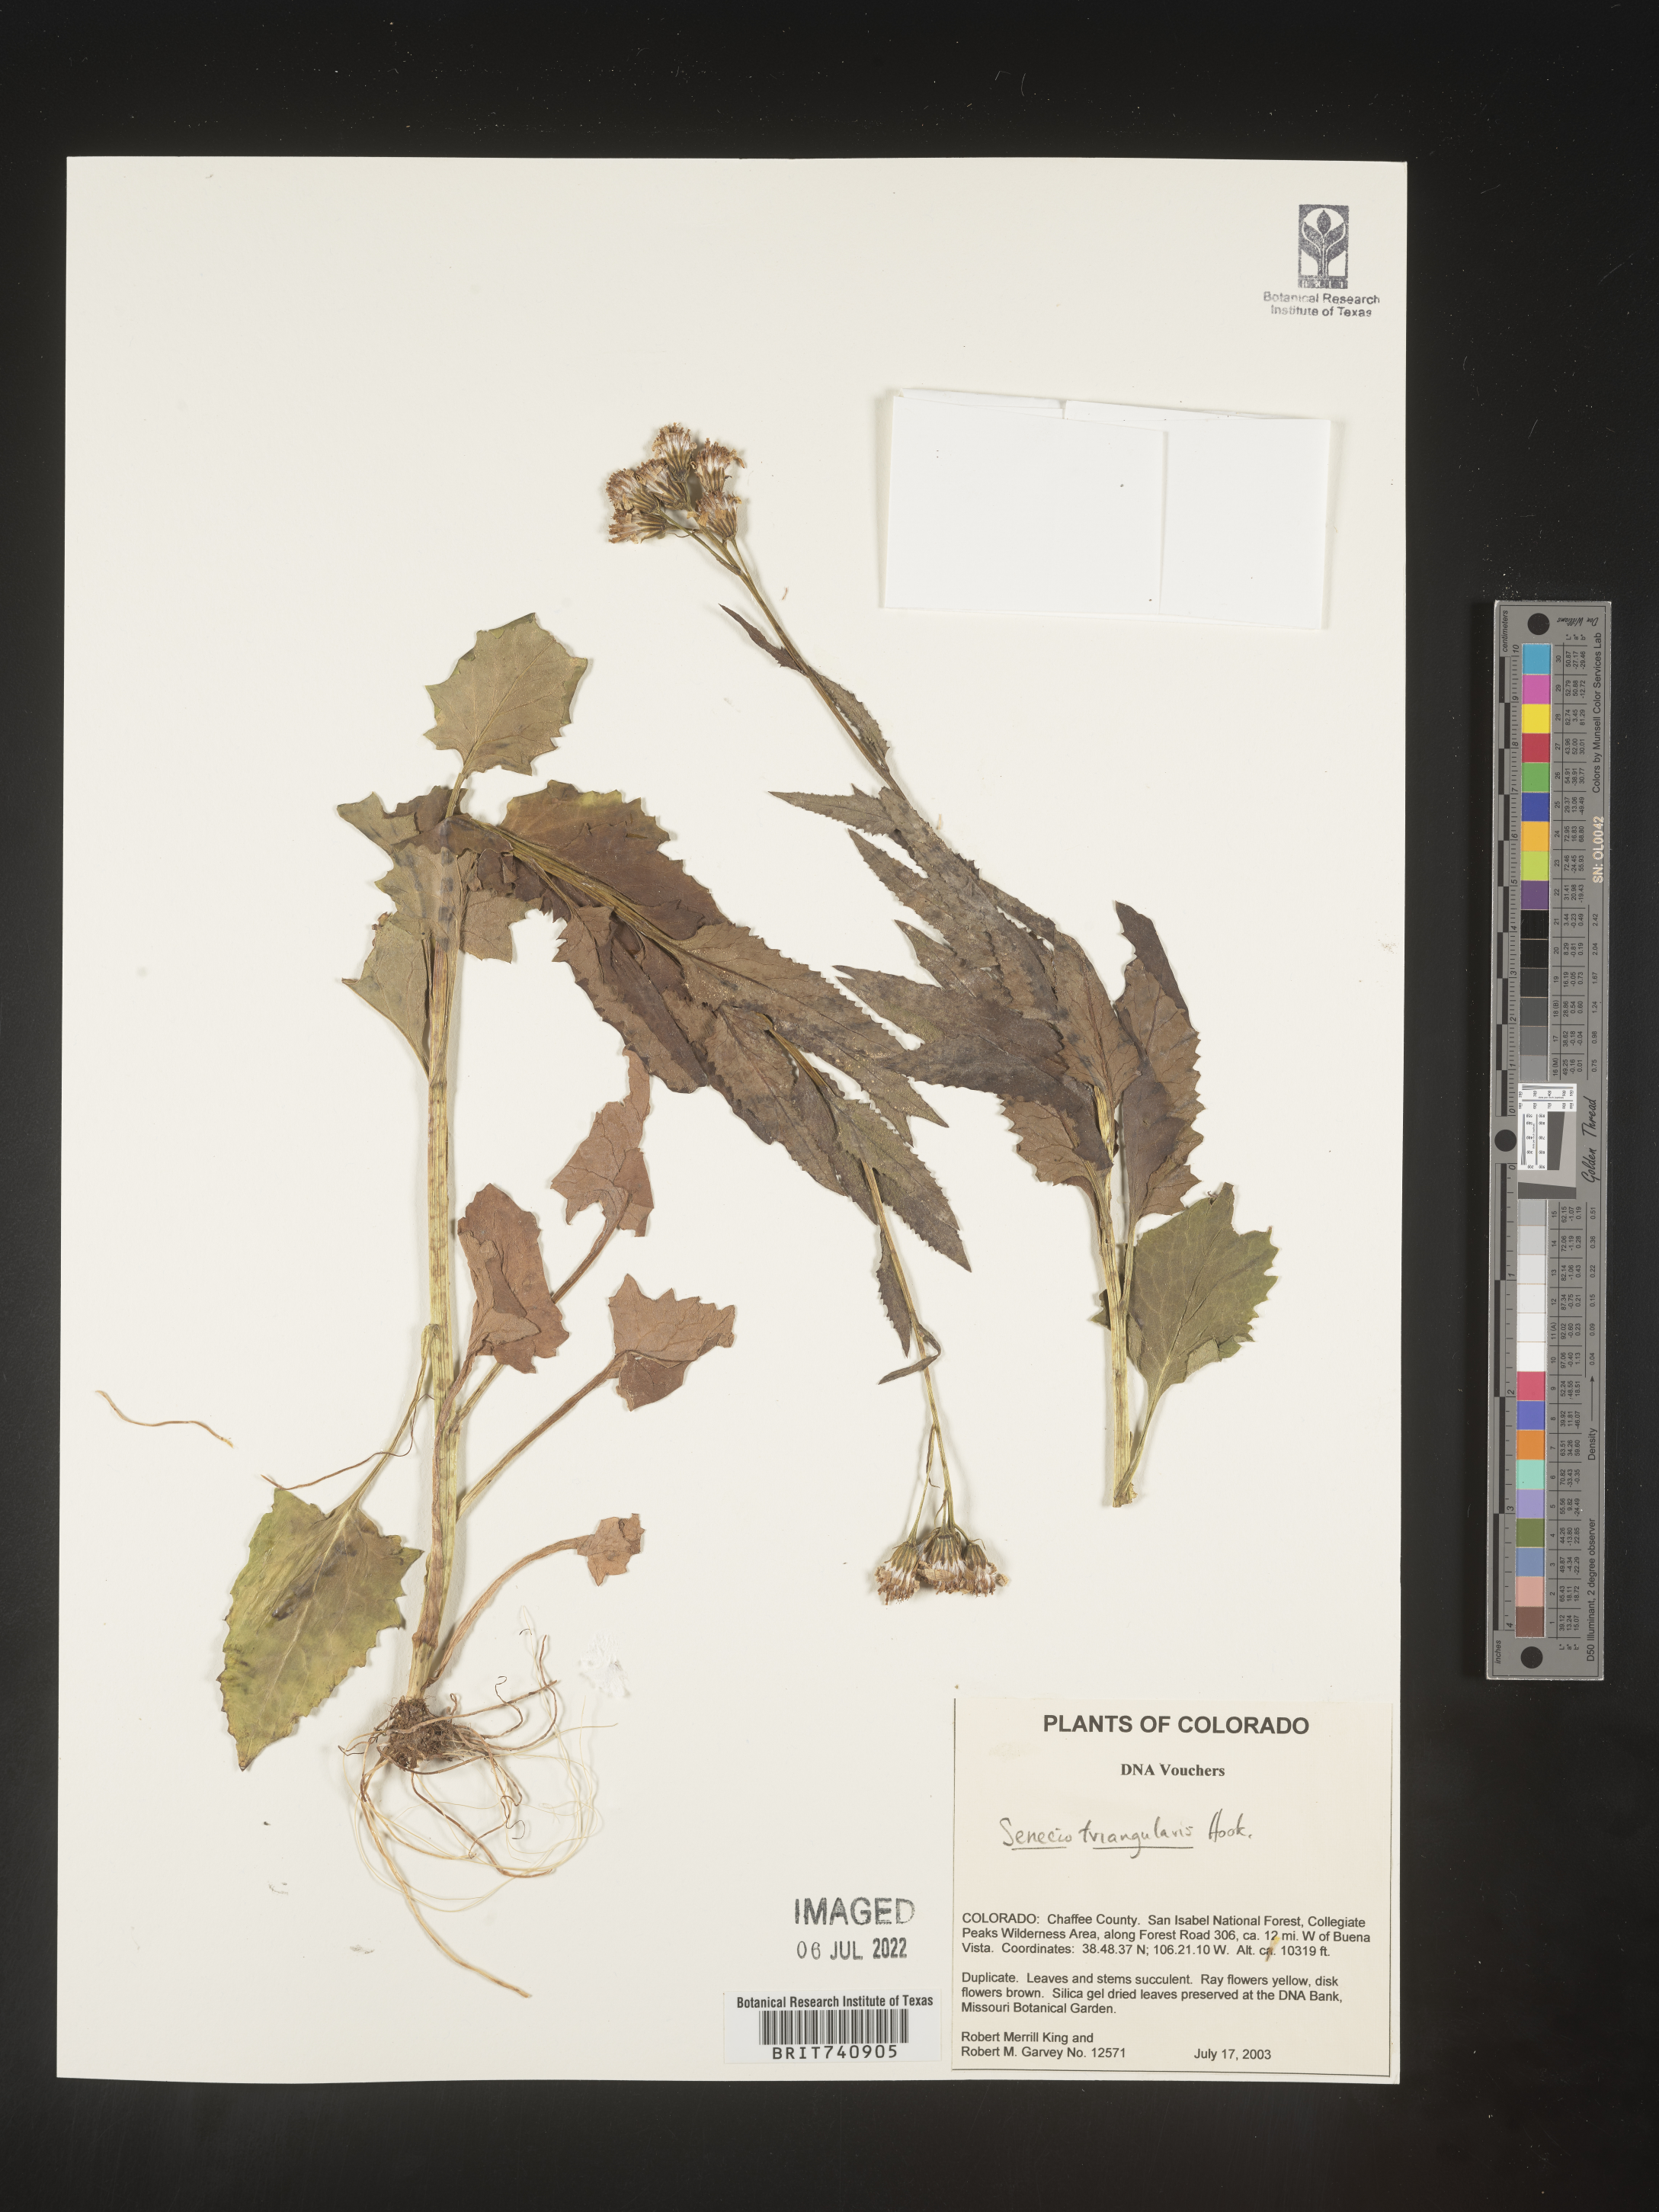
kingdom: Plantae
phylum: Tracheophyta
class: Magnoliopsida
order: Asterales
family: Asteraceae
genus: Senecio
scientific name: Senecio triangularis
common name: Arrowleaf butterweed
